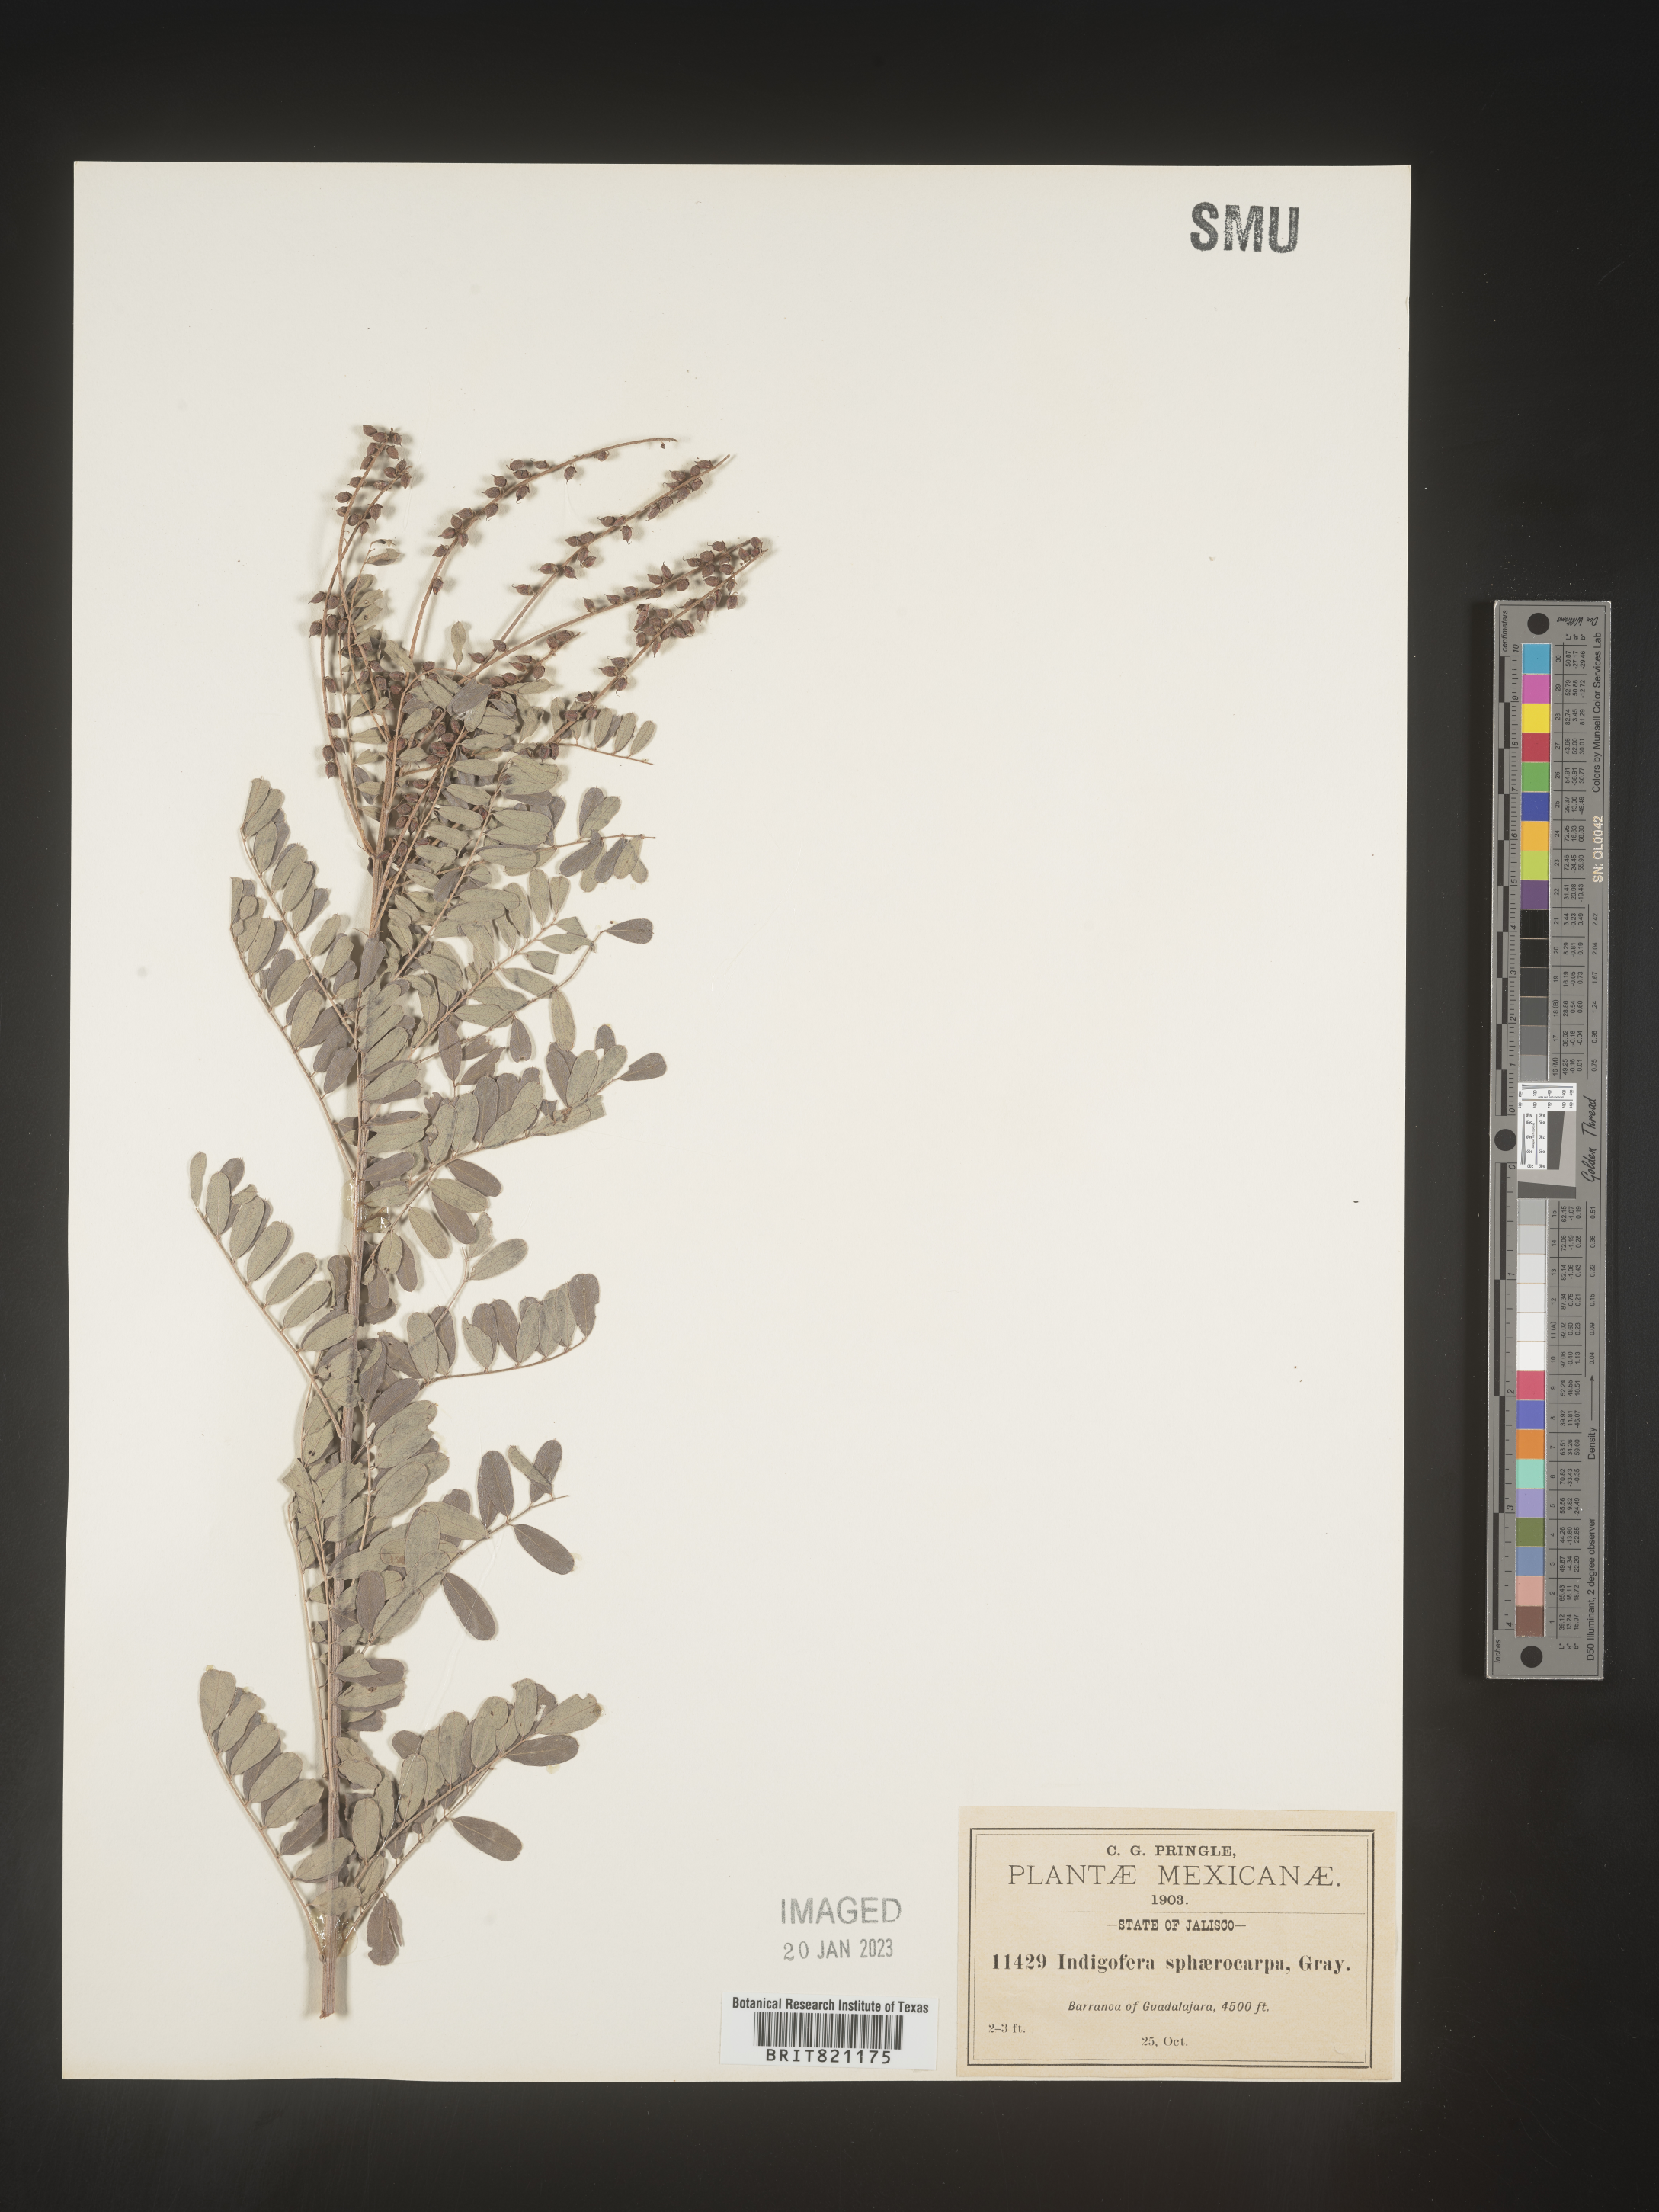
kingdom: Plantae
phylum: Tracheophyta
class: Magnoliopsida
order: Fabales
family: Fabaceae
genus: Indigofera
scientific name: Indigofera
